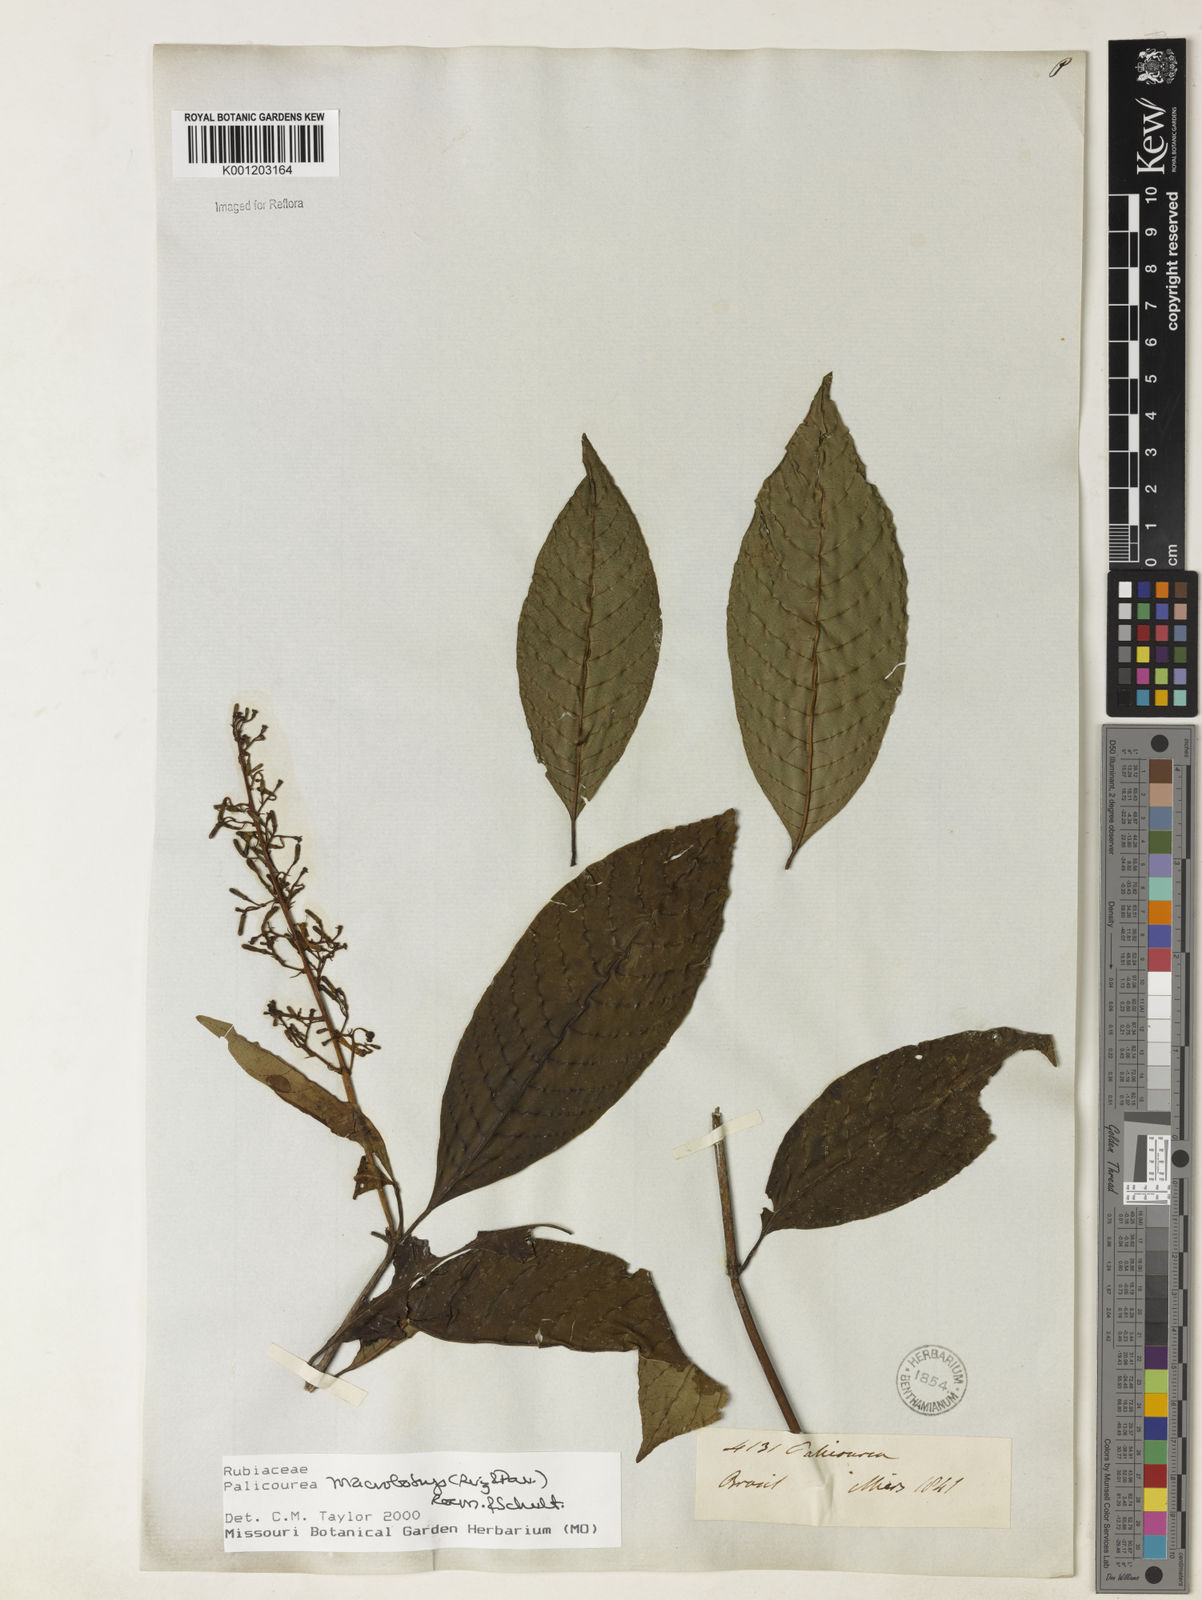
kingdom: Plantae
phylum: Tracheophyta
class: Magnoliopsida
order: Gentianales
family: Rubiaceae
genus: Palicourea
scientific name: Palicourea macrobotrys
